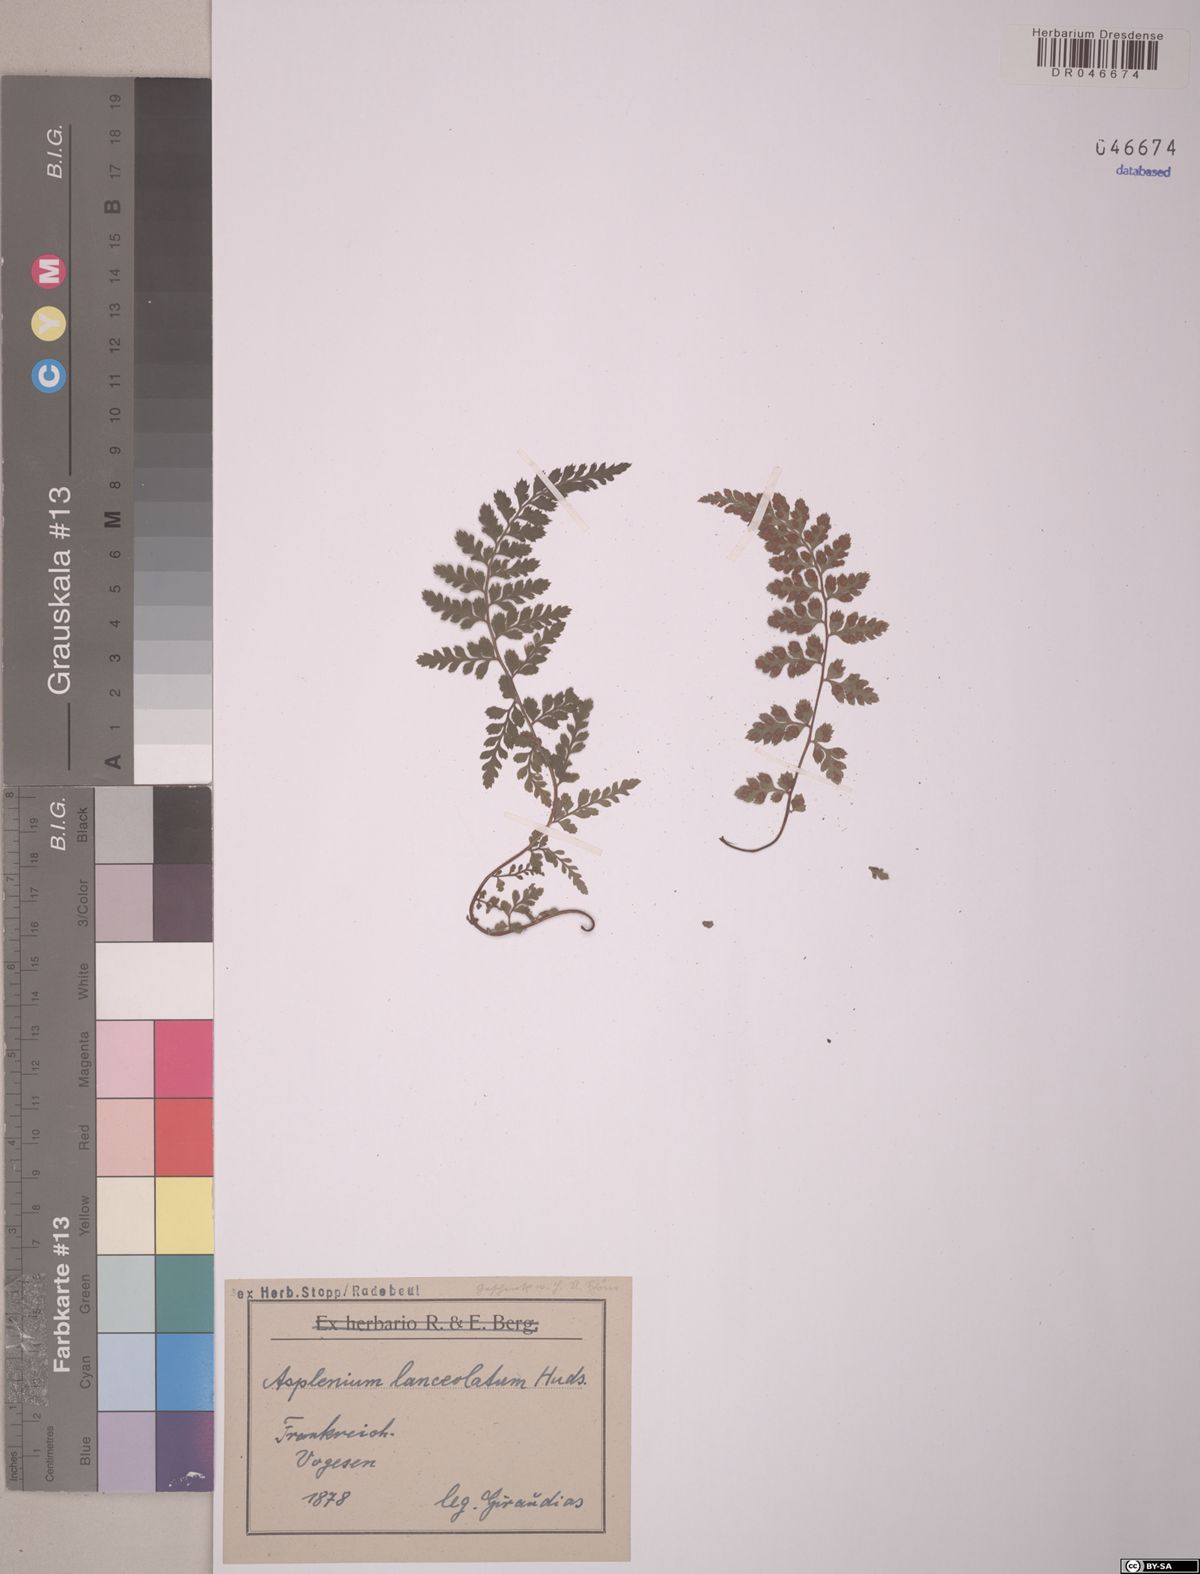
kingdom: Plantae
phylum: Tracheophyta
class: Polypodiopsida
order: Polypodiales
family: Aspleniaceae
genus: Asplenium
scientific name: Asplenium aethiopicum
